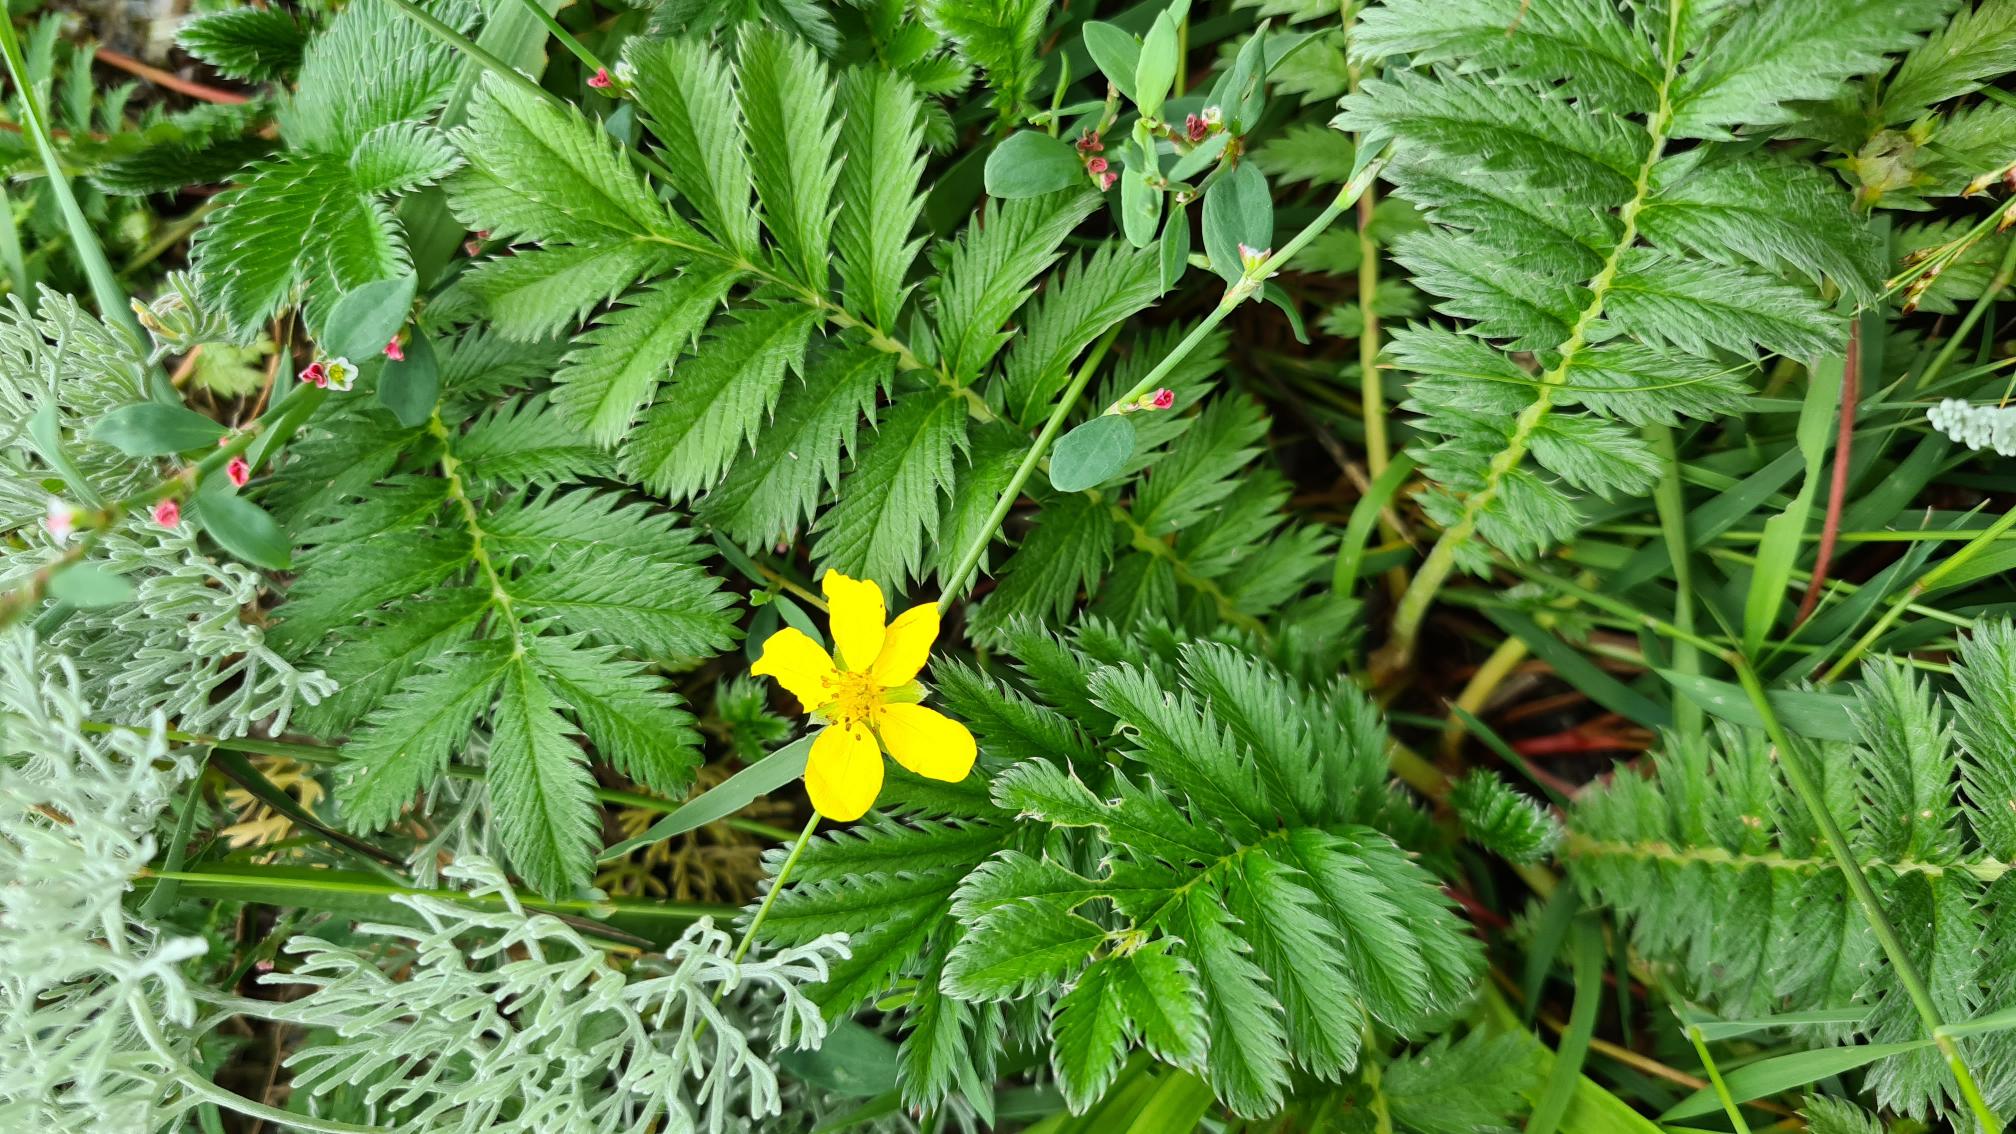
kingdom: Plantae
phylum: Tracheophyta
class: Magnoliopsida
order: Rosales
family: Rosaceae
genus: Argentina
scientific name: Argentina anserina
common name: Gåsepotentil
